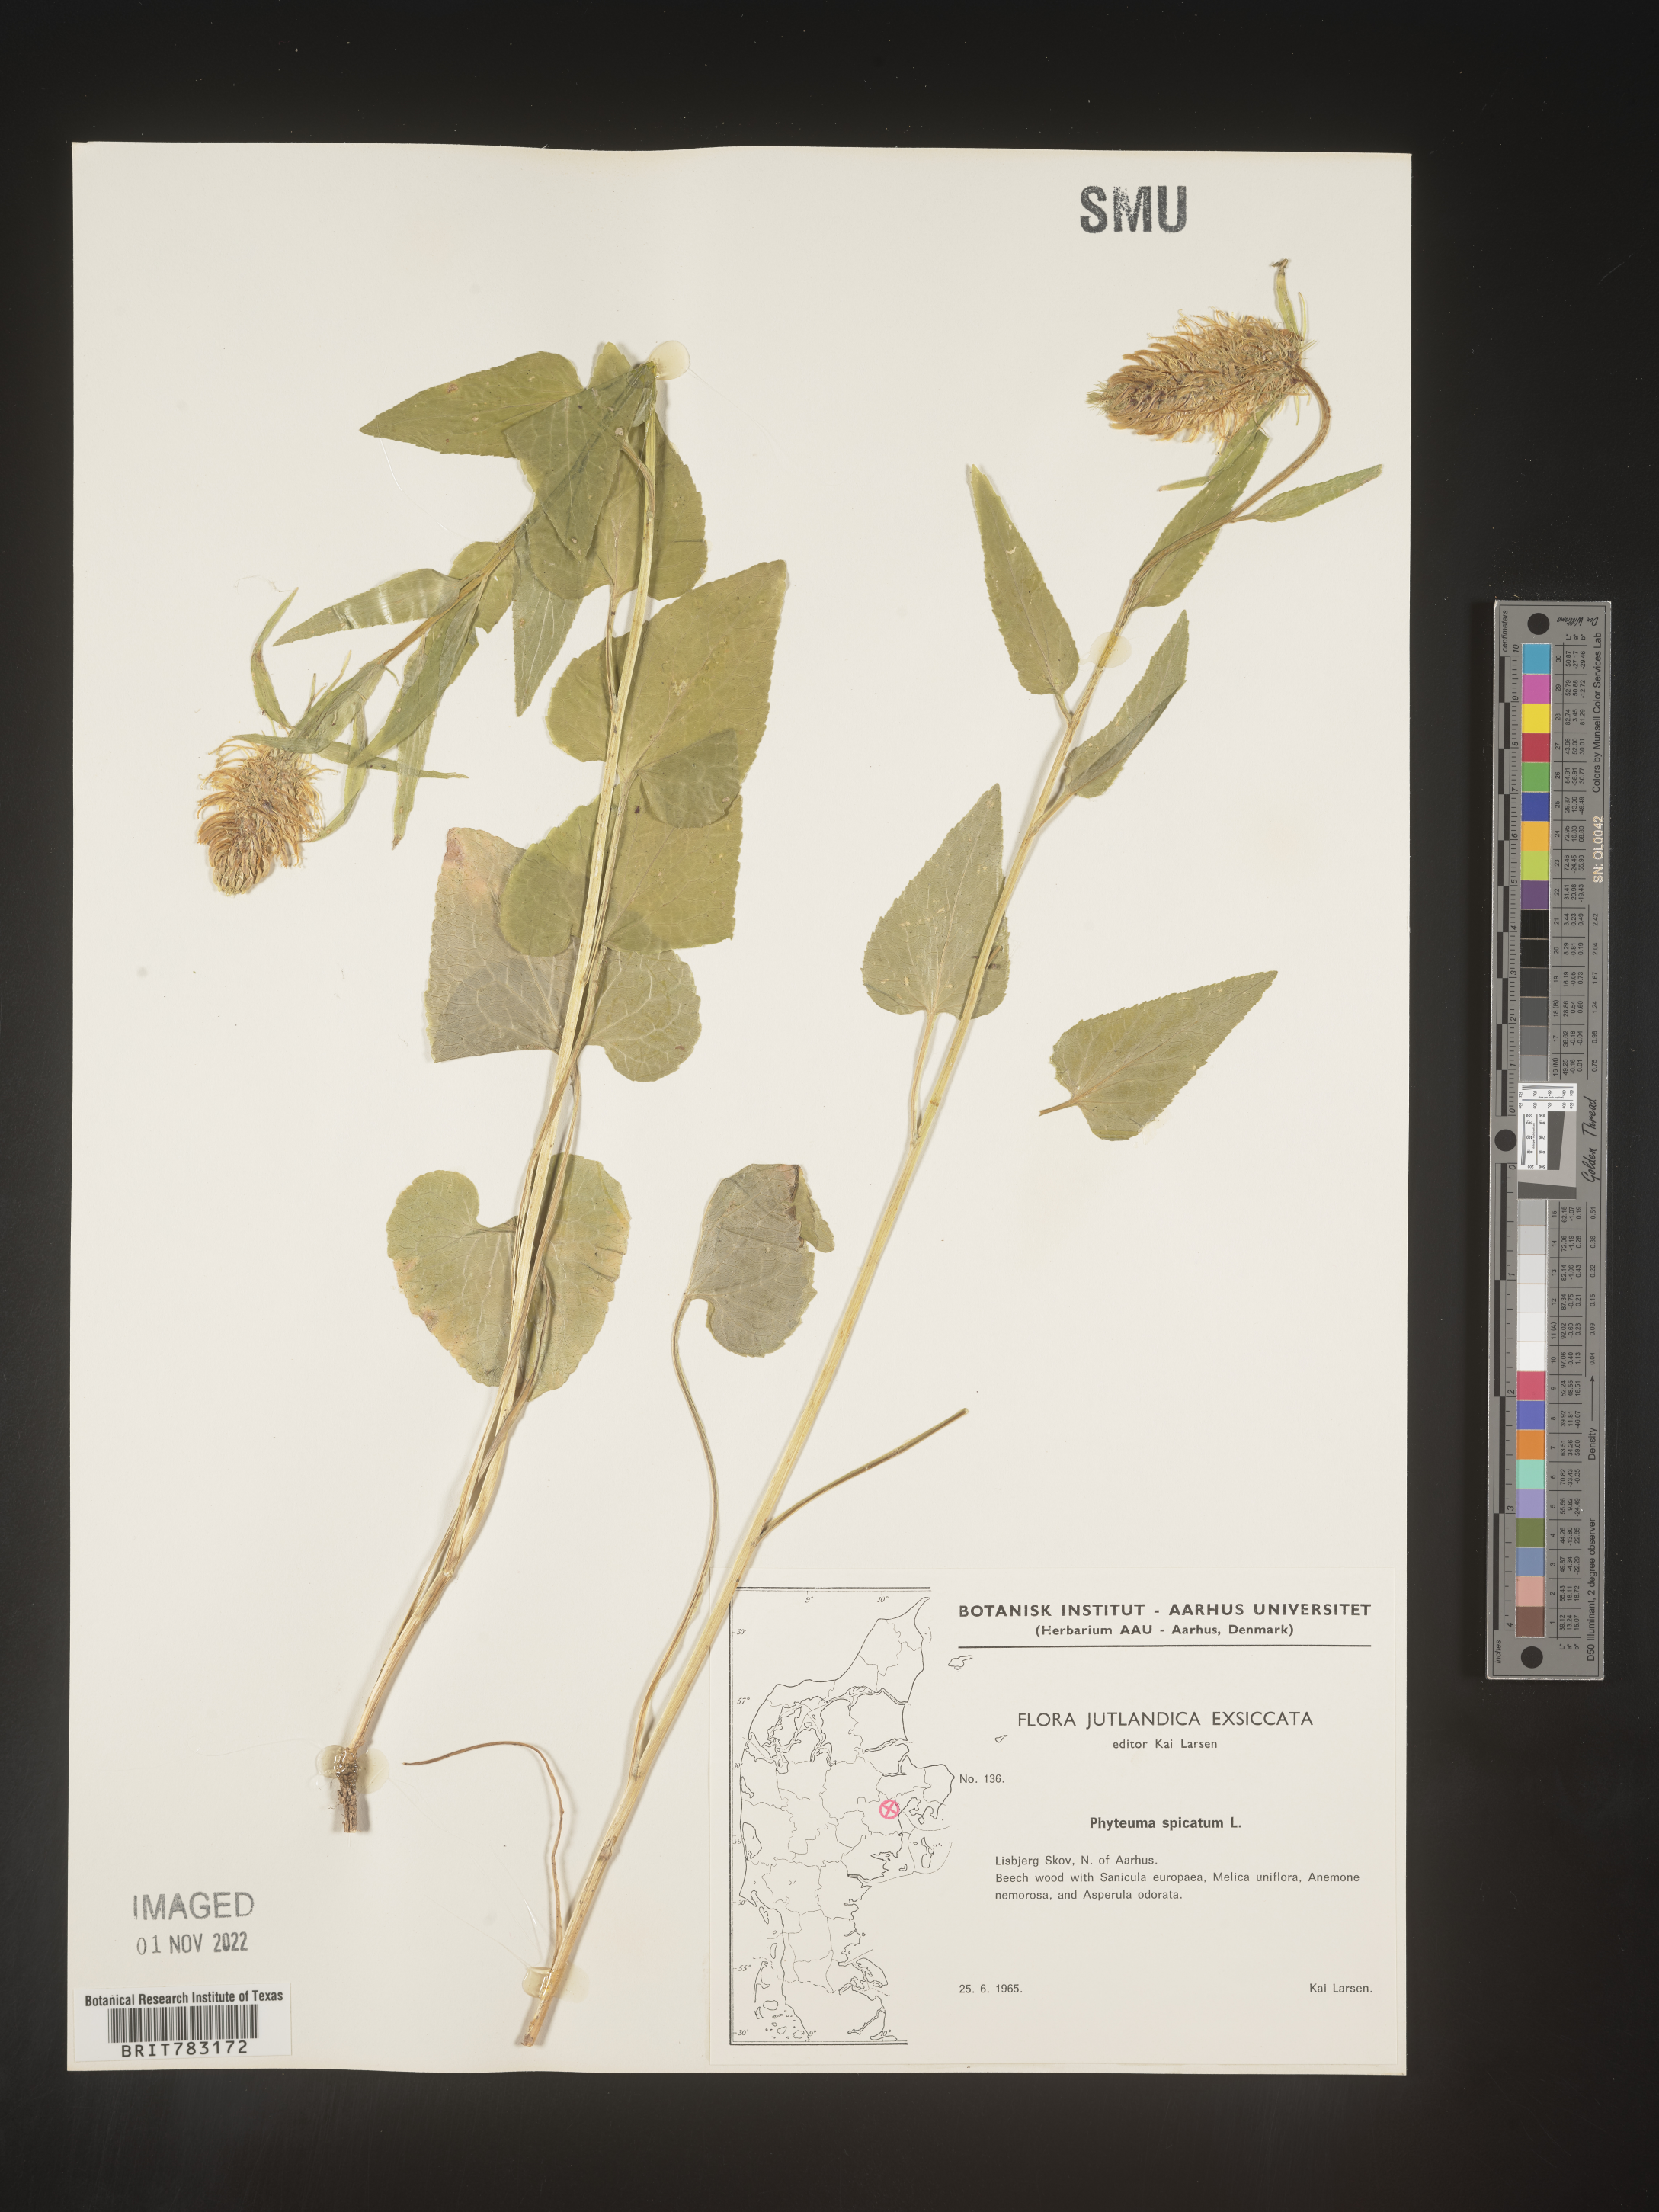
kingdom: Plantae
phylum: Tracheophyta
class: Magnoliopsida
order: Asterales
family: Campanulaceae
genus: Phyteuma
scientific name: Phyteuma
